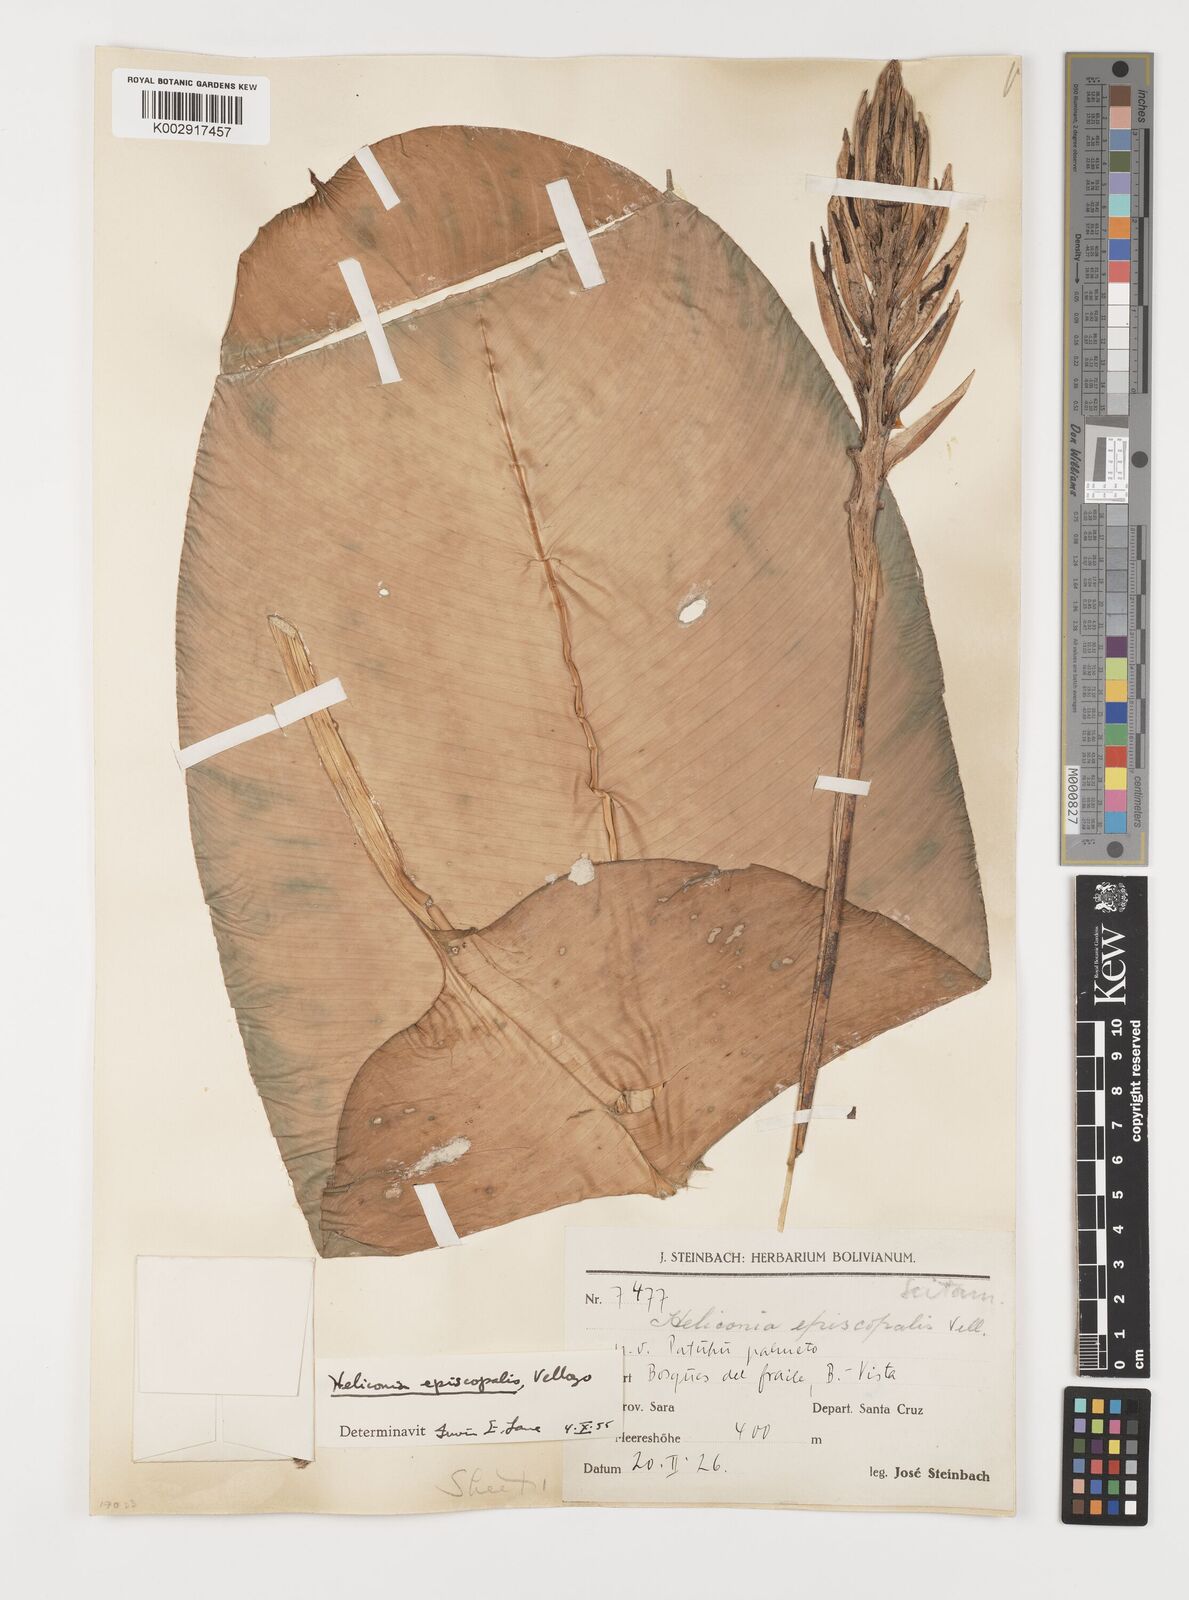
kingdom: Plantae
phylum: Tracheophyta
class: Liliopsida
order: Zingiberales
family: Heliconiaceae
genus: Heliconia
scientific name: Heliconia episcopalis
